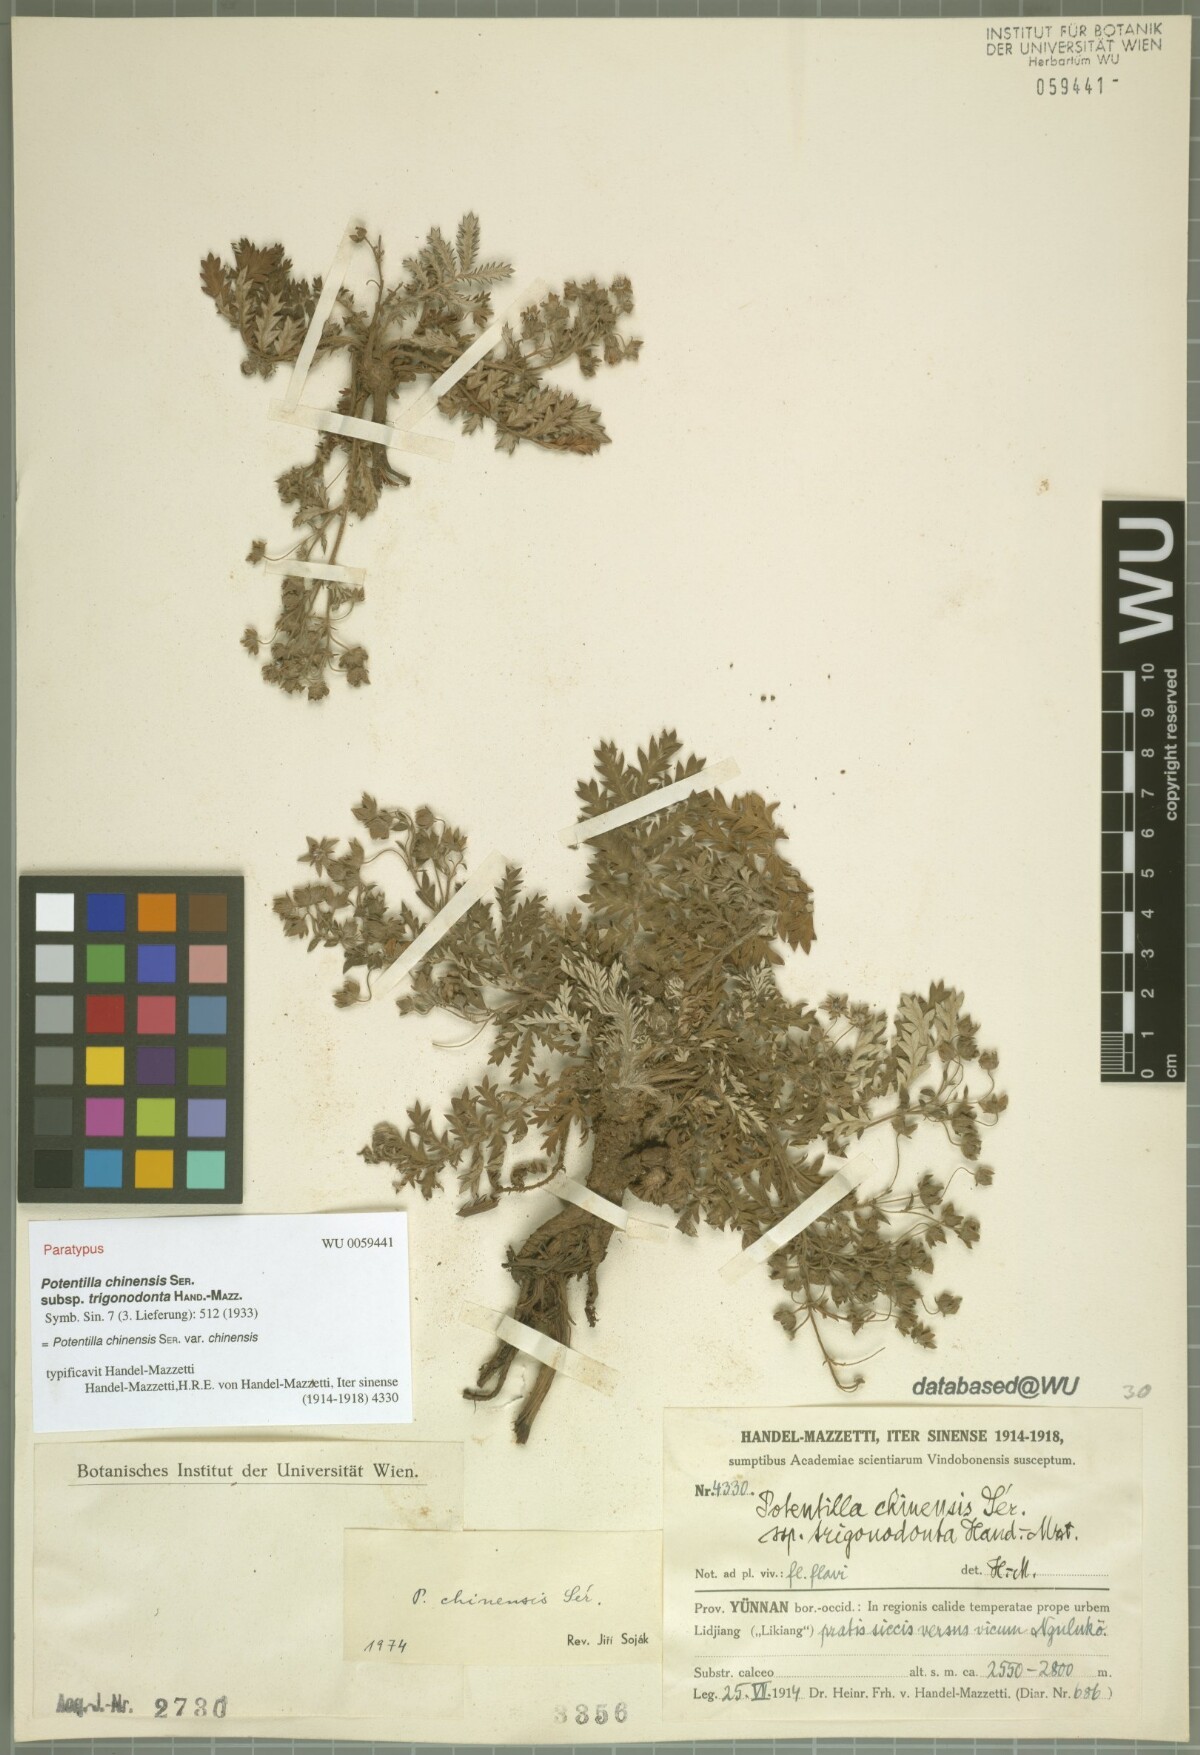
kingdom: Plantae
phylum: Tracheophyta
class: Magnoliopsida
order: Rosales
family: Rosaceae
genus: Potentilla
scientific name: Potentilla chinensis
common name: Chinese cinquefoil
